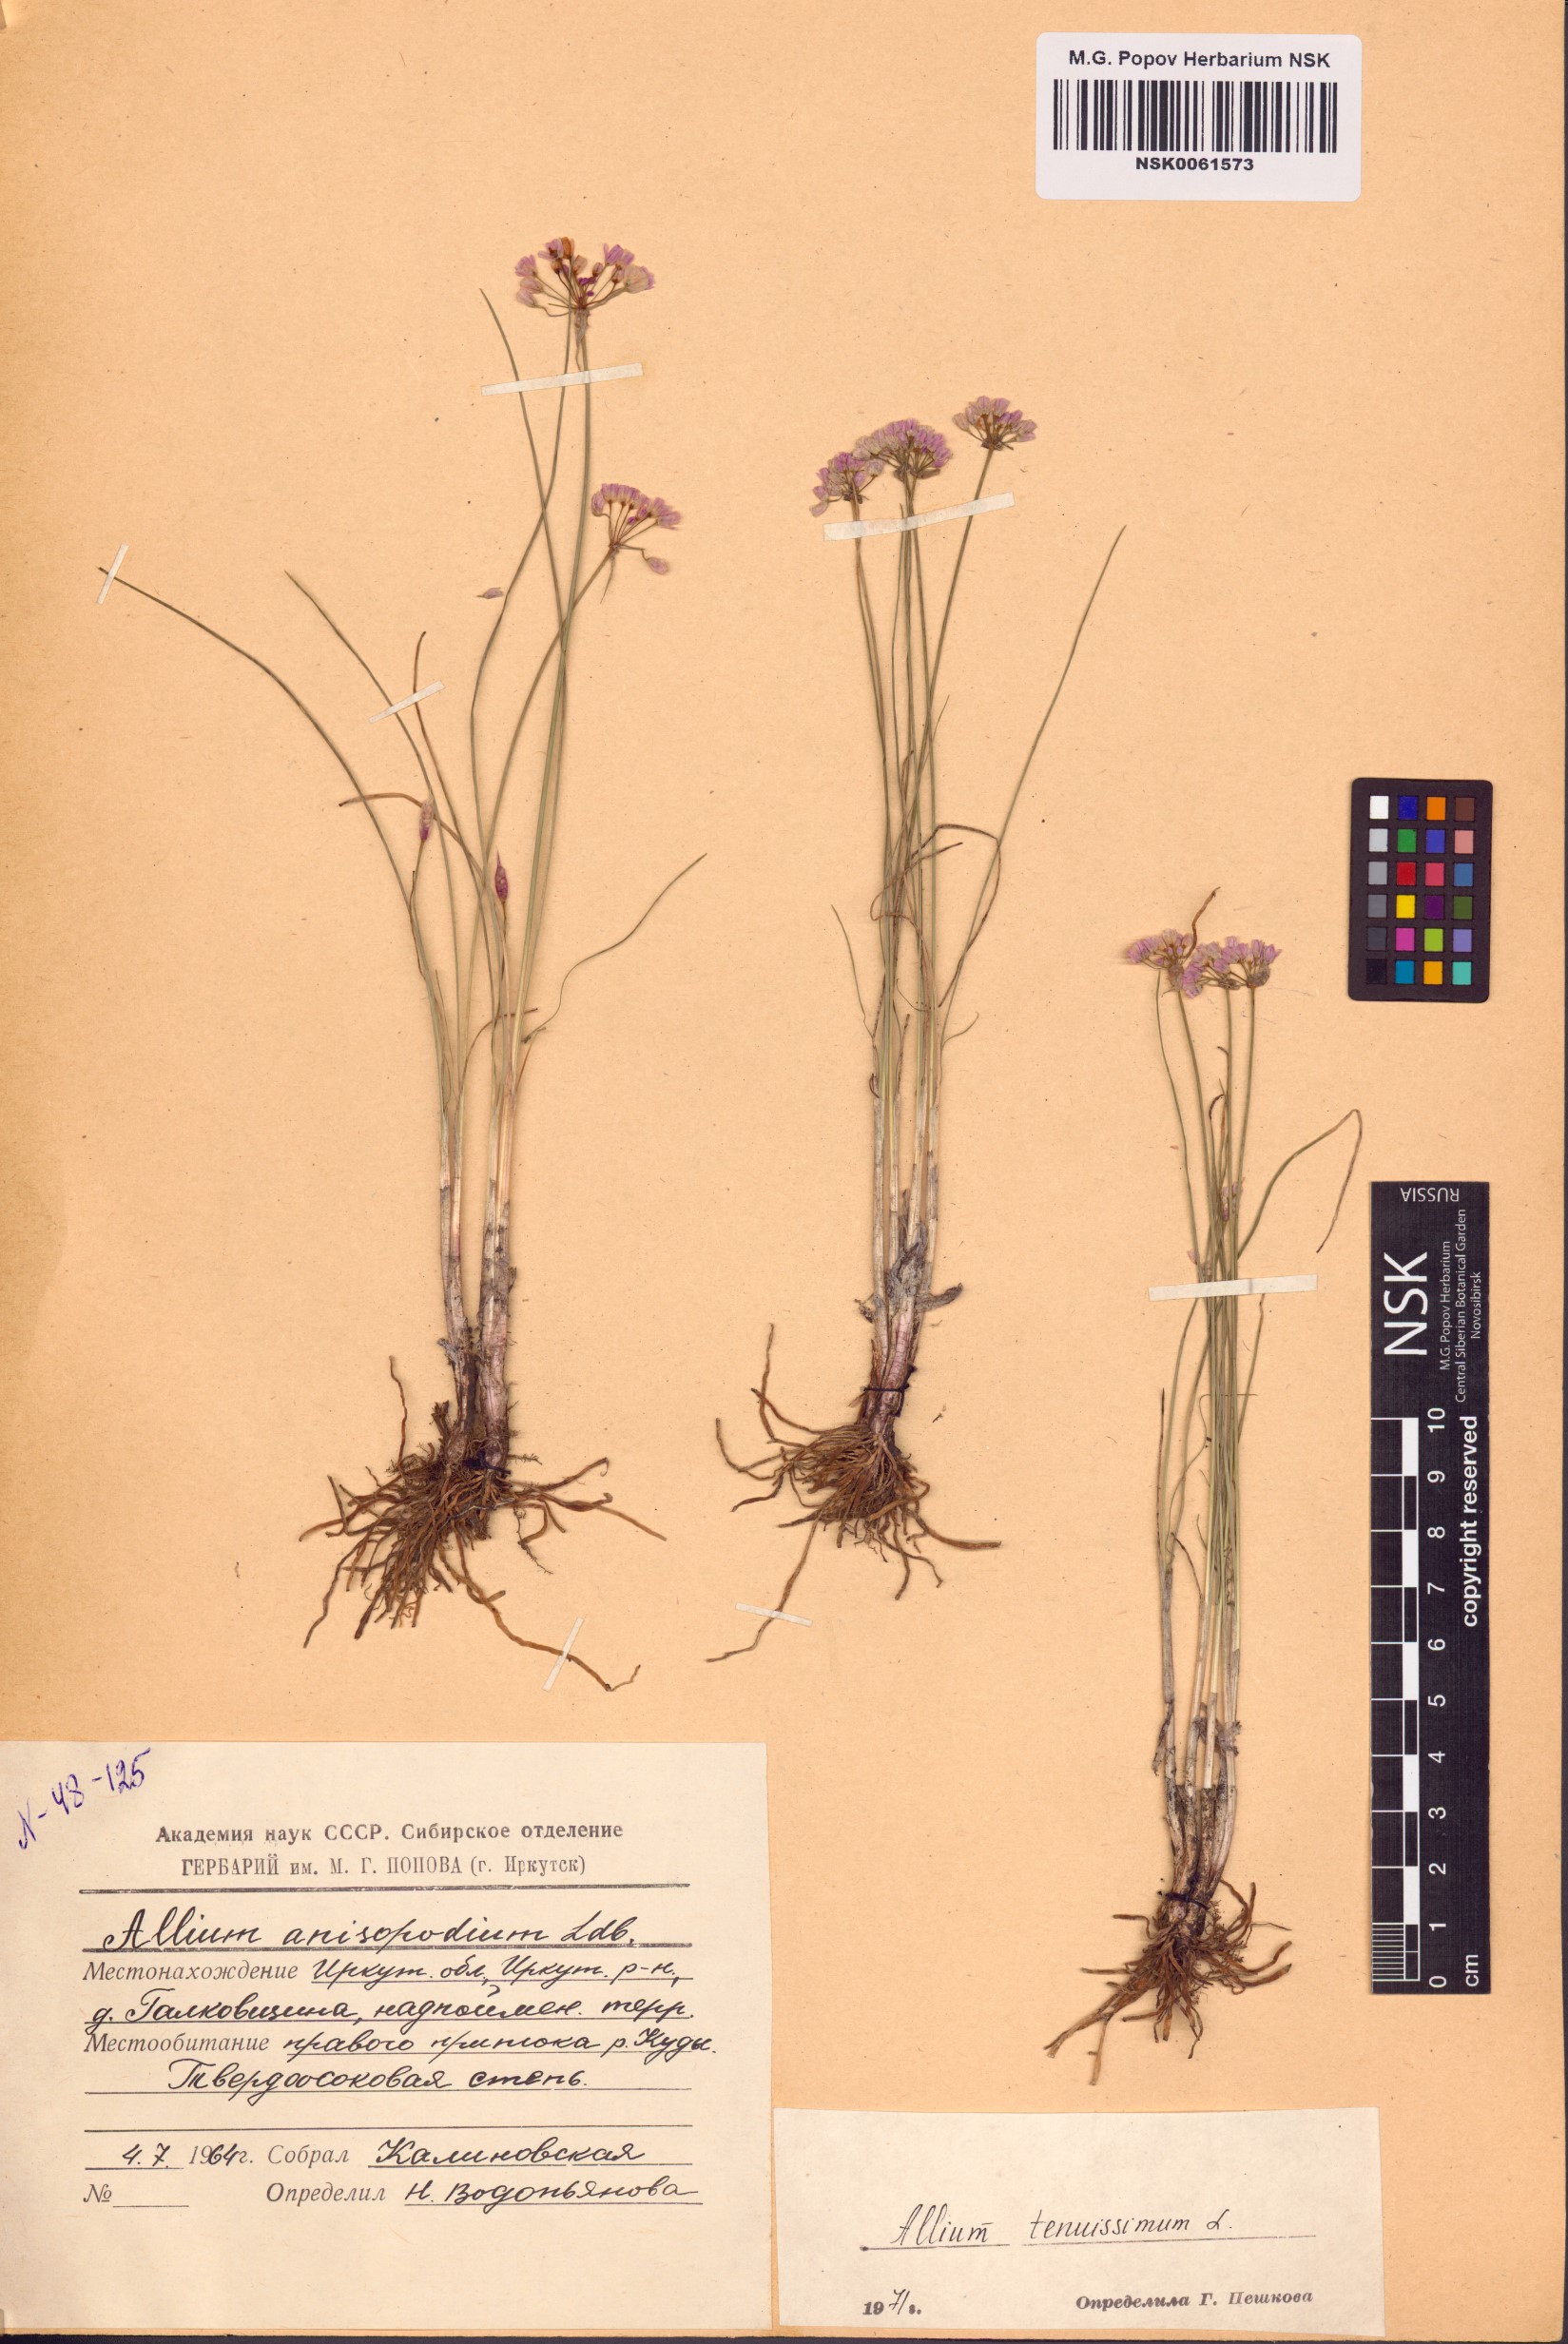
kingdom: Plantae
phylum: Tracheophyta
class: Liliopsida
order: Asparagales
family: Amaryllidaceae
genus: Allium
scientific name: Allium tenuissimum
